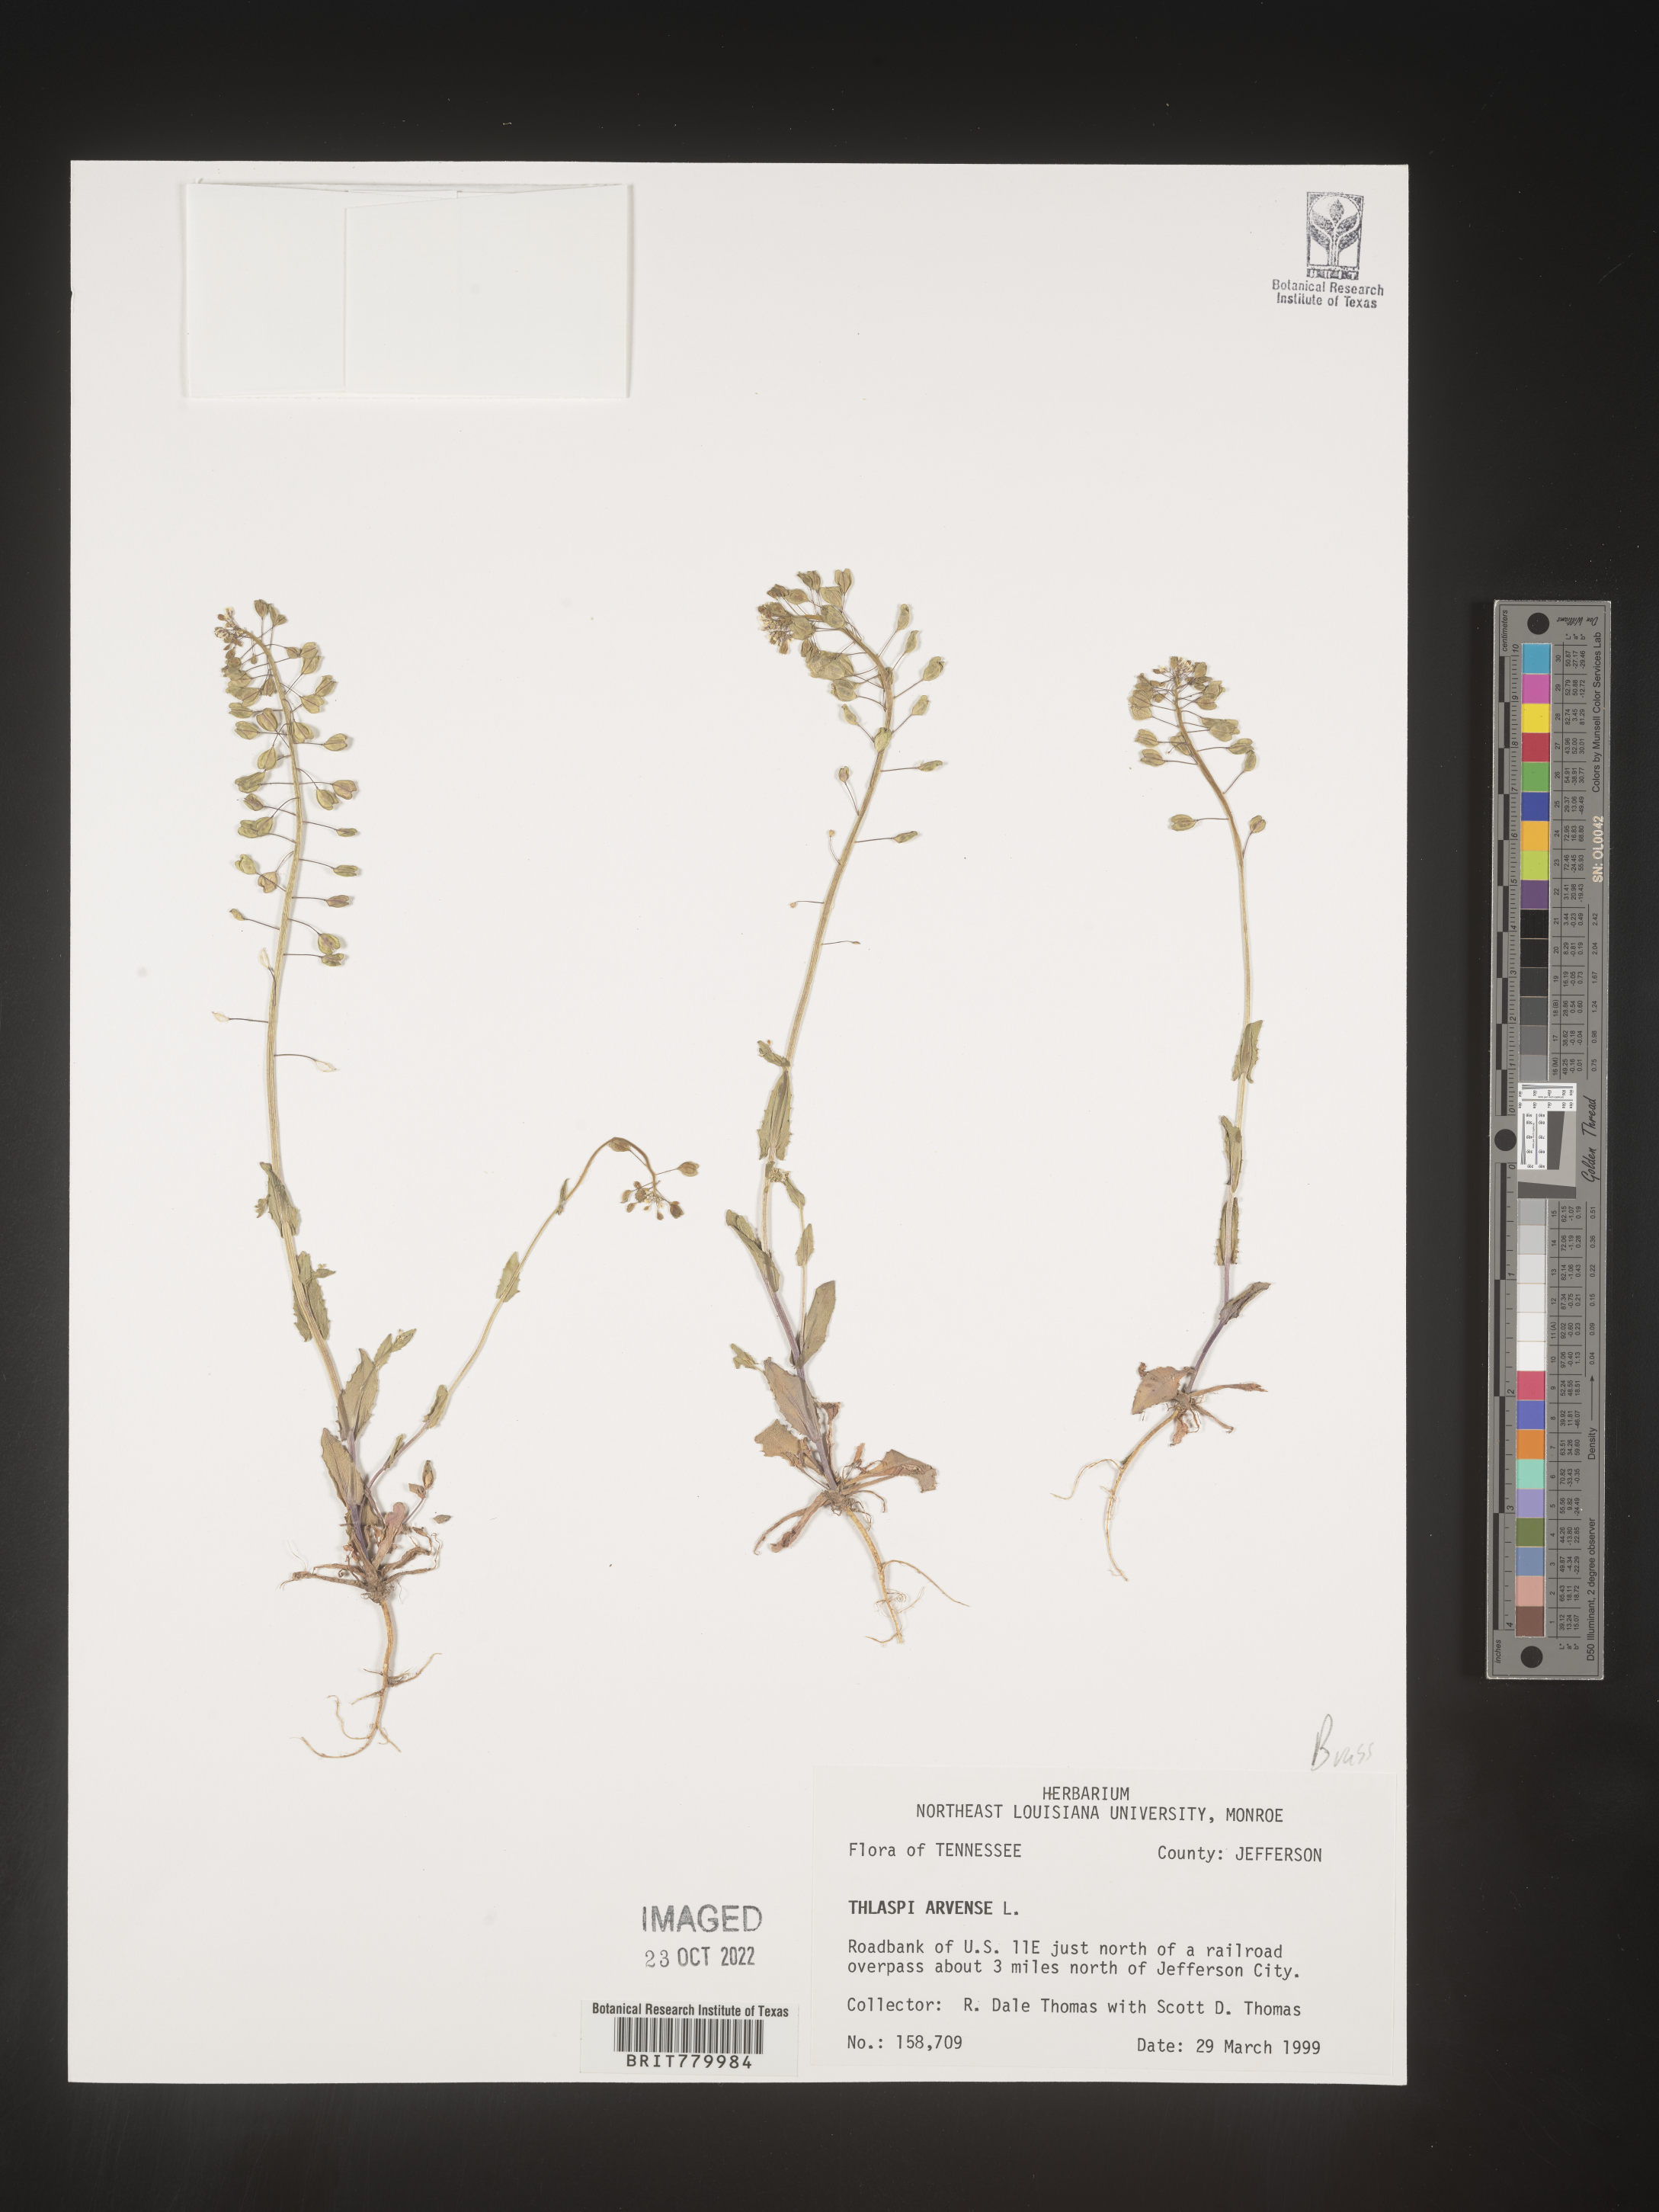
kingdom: Plantae
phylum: Tracheophyta
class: Magnoliopsida
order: Brassicales
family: Brassicaceae
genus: Thlaspi
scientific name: Thlaspi arvense
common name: Field pennycress
